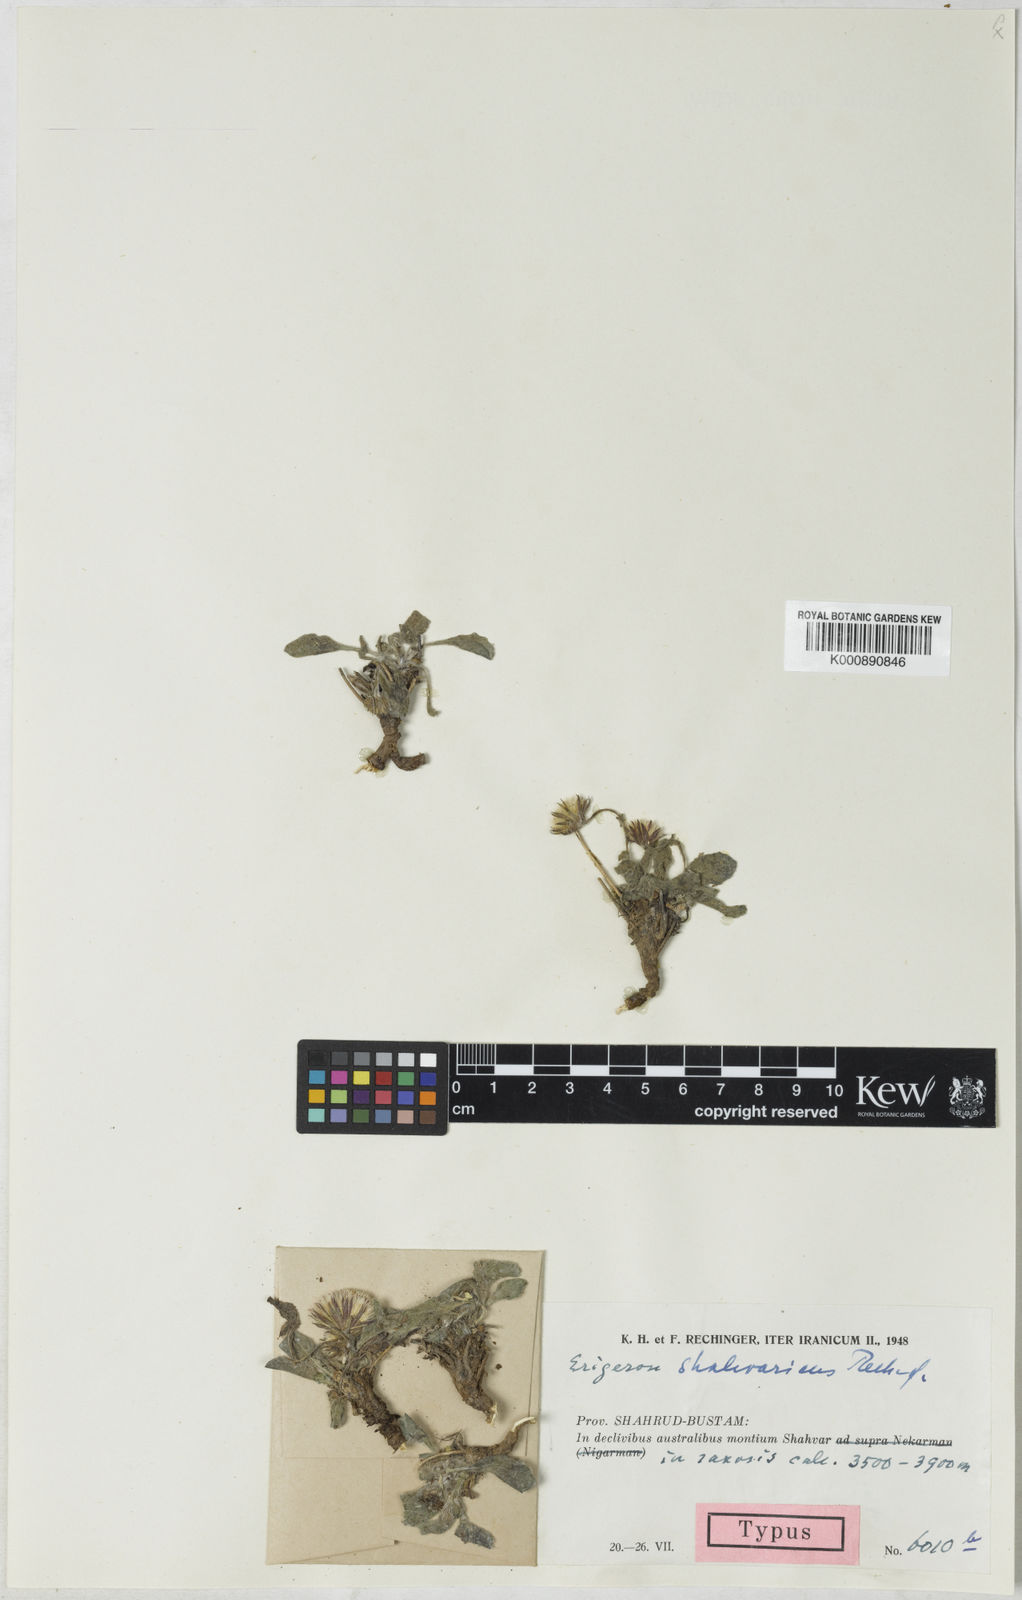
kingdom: Plantae
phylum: Tracheophyta
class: Magnoliopsida
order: Asterales
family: Asteraceae
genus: Psychrogeton
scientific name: Psychrogeton amorphoglossus
